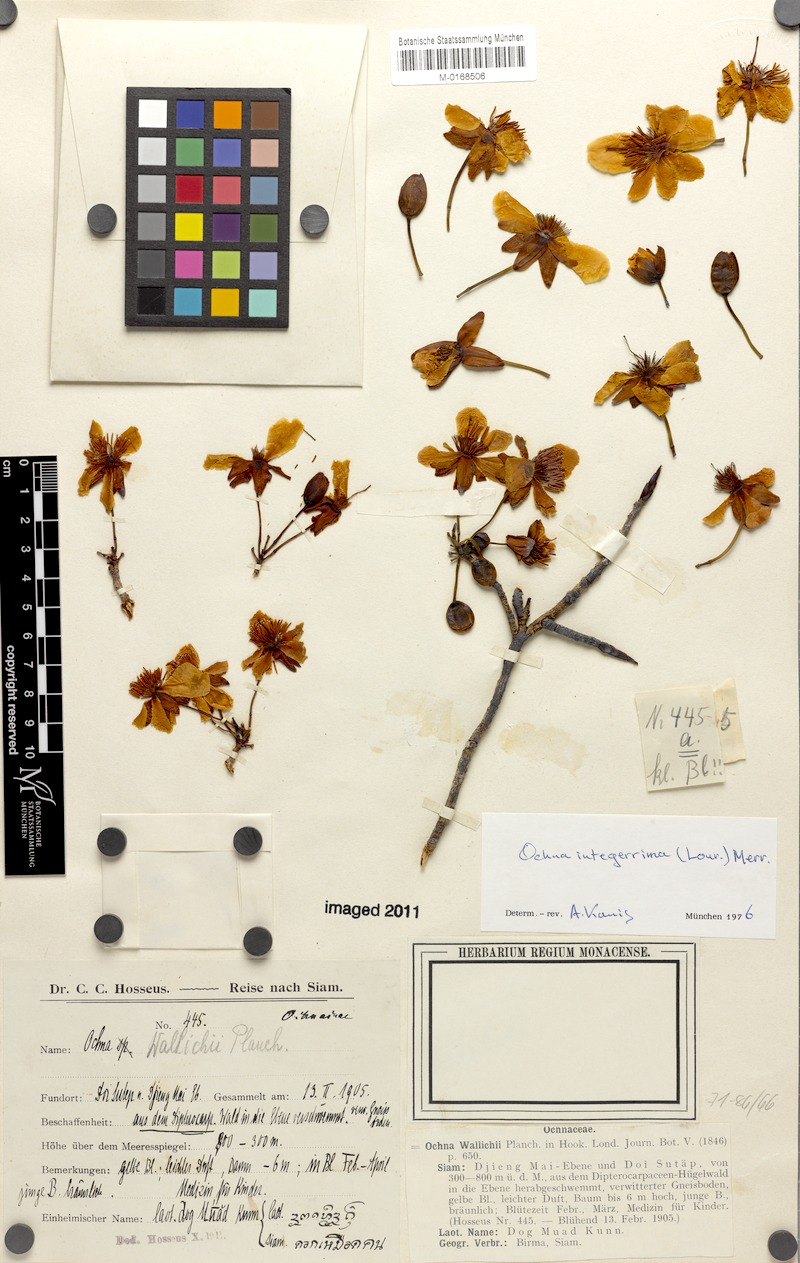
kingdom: Plantae
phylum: Tracheophyta
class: Magnoliopsida
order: Malpighiales
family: Ochnaceae
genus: Ochna
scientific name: Ochna integerrima
